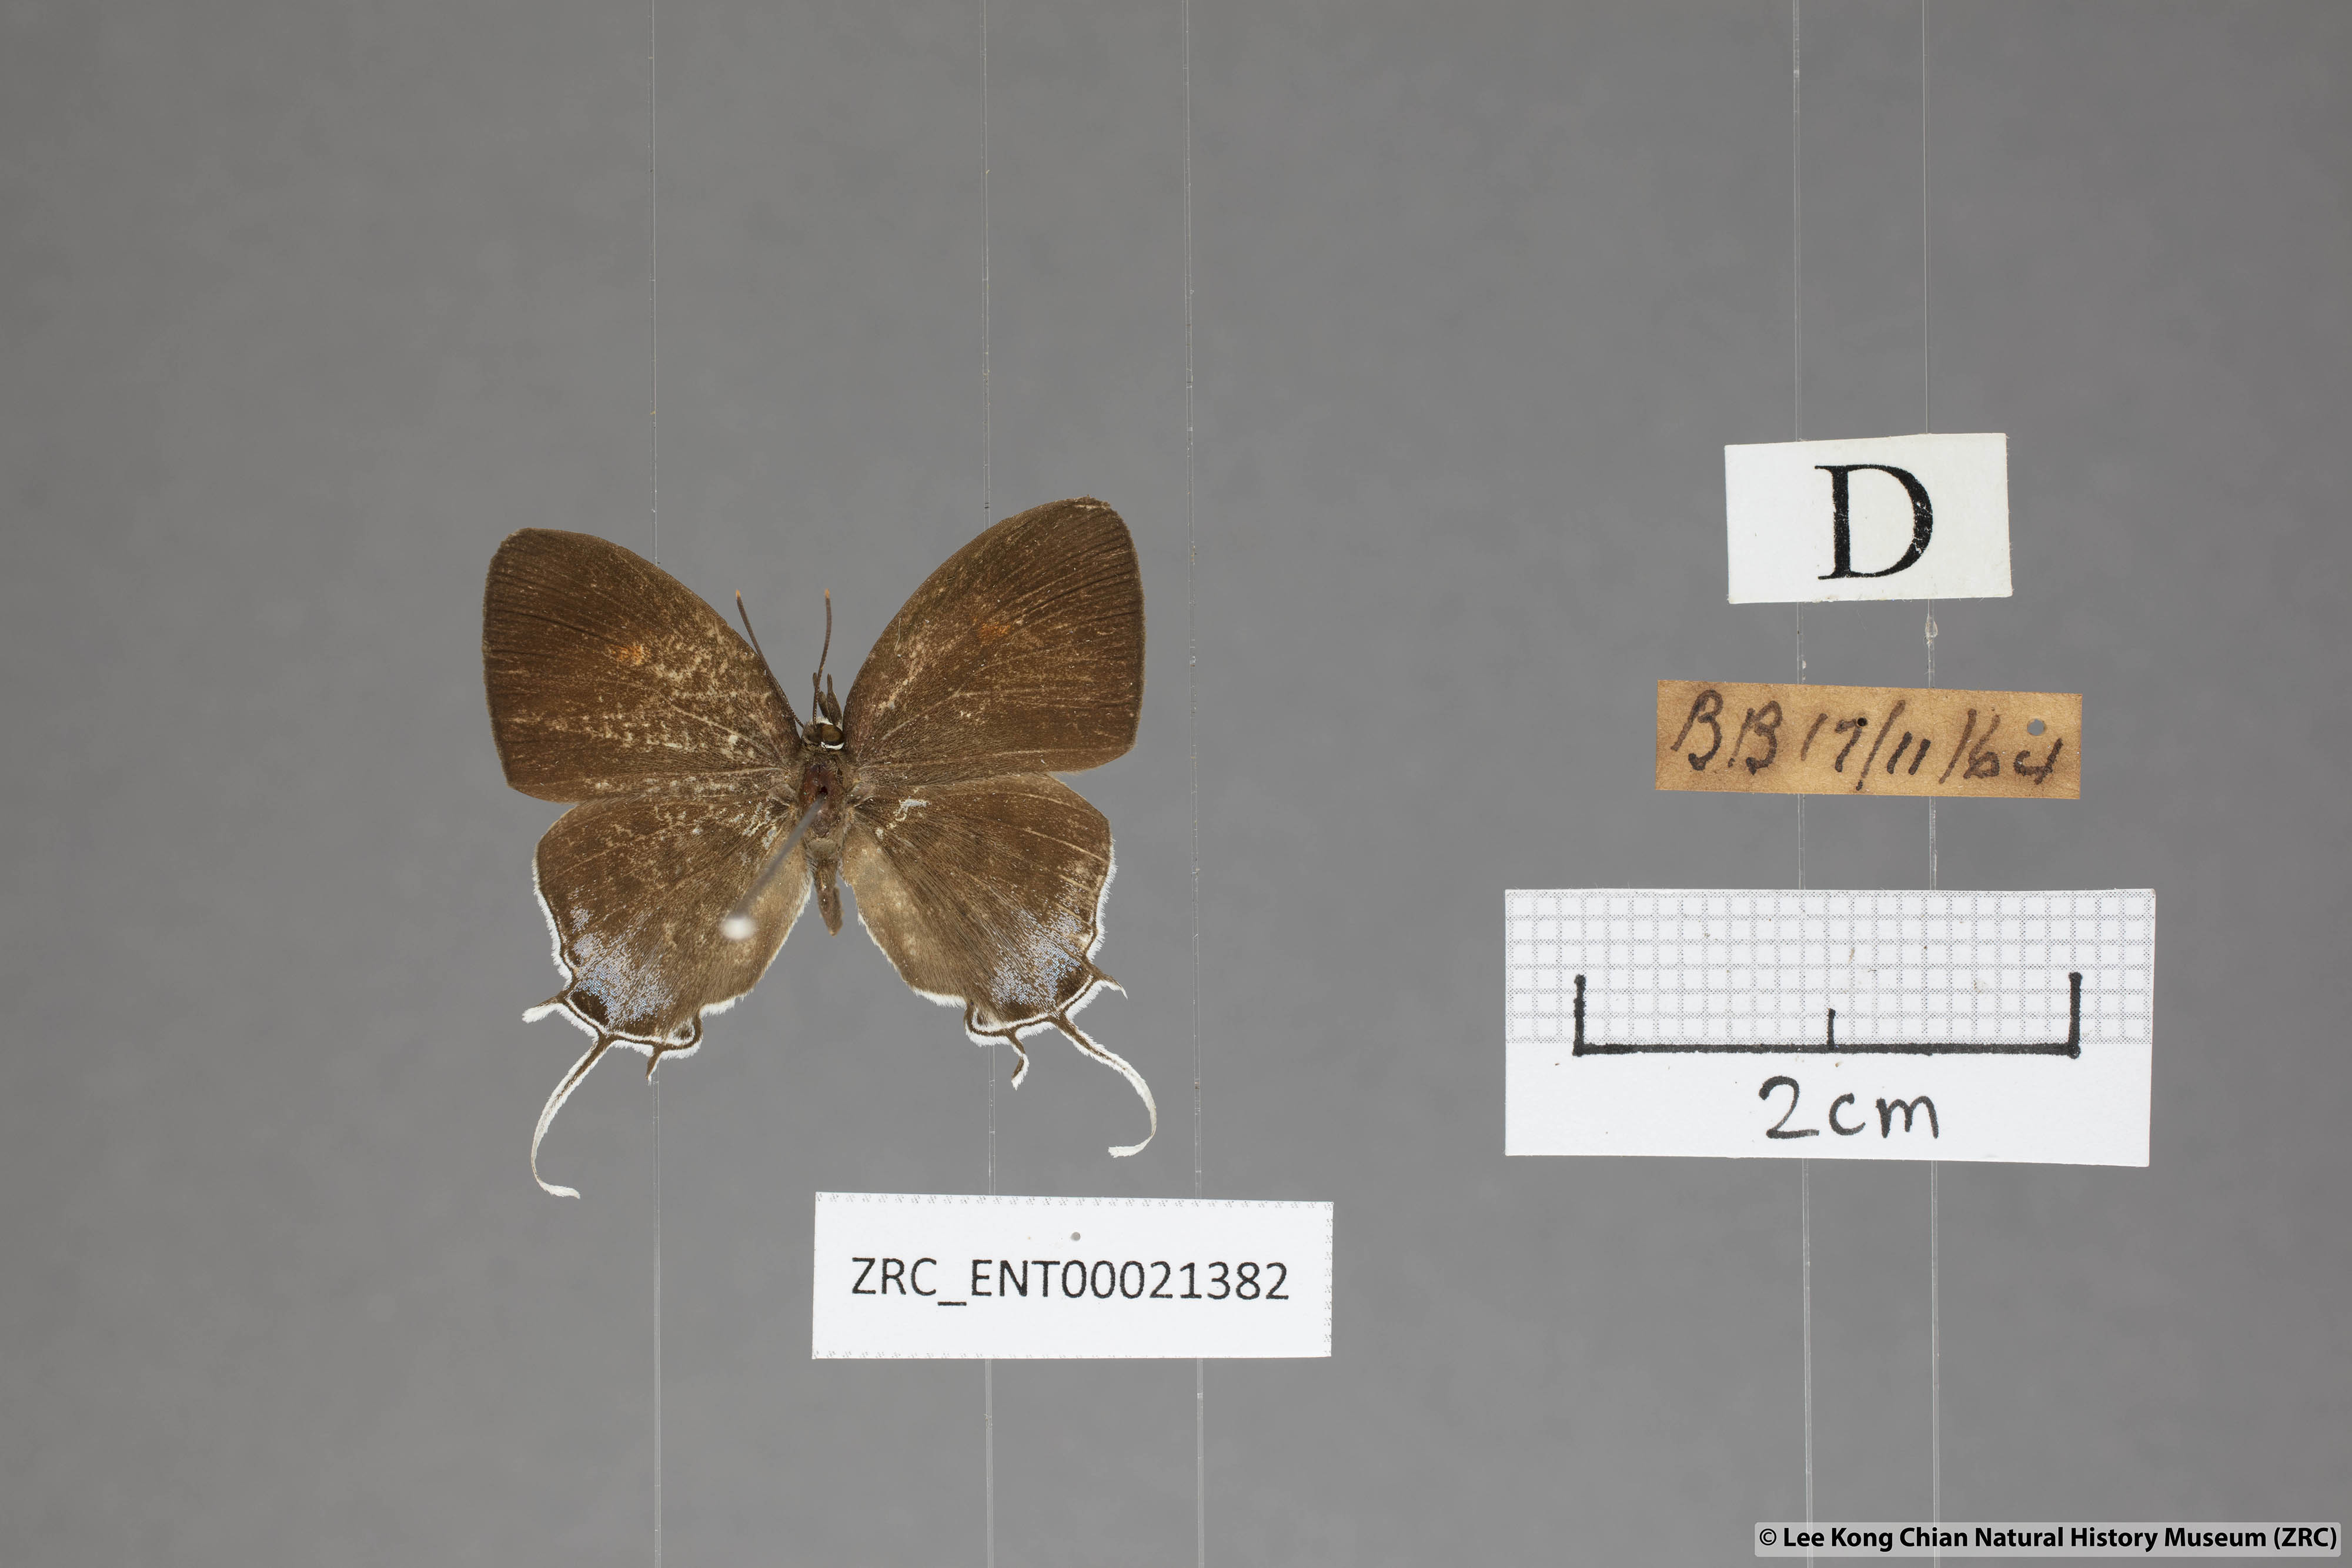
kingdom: Animalia
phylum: Arthropoda
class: Insecta
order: Lepidoptera
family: Lycaenidae
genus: Drupadia
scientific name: Drupadia ravindra
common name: Common posy
